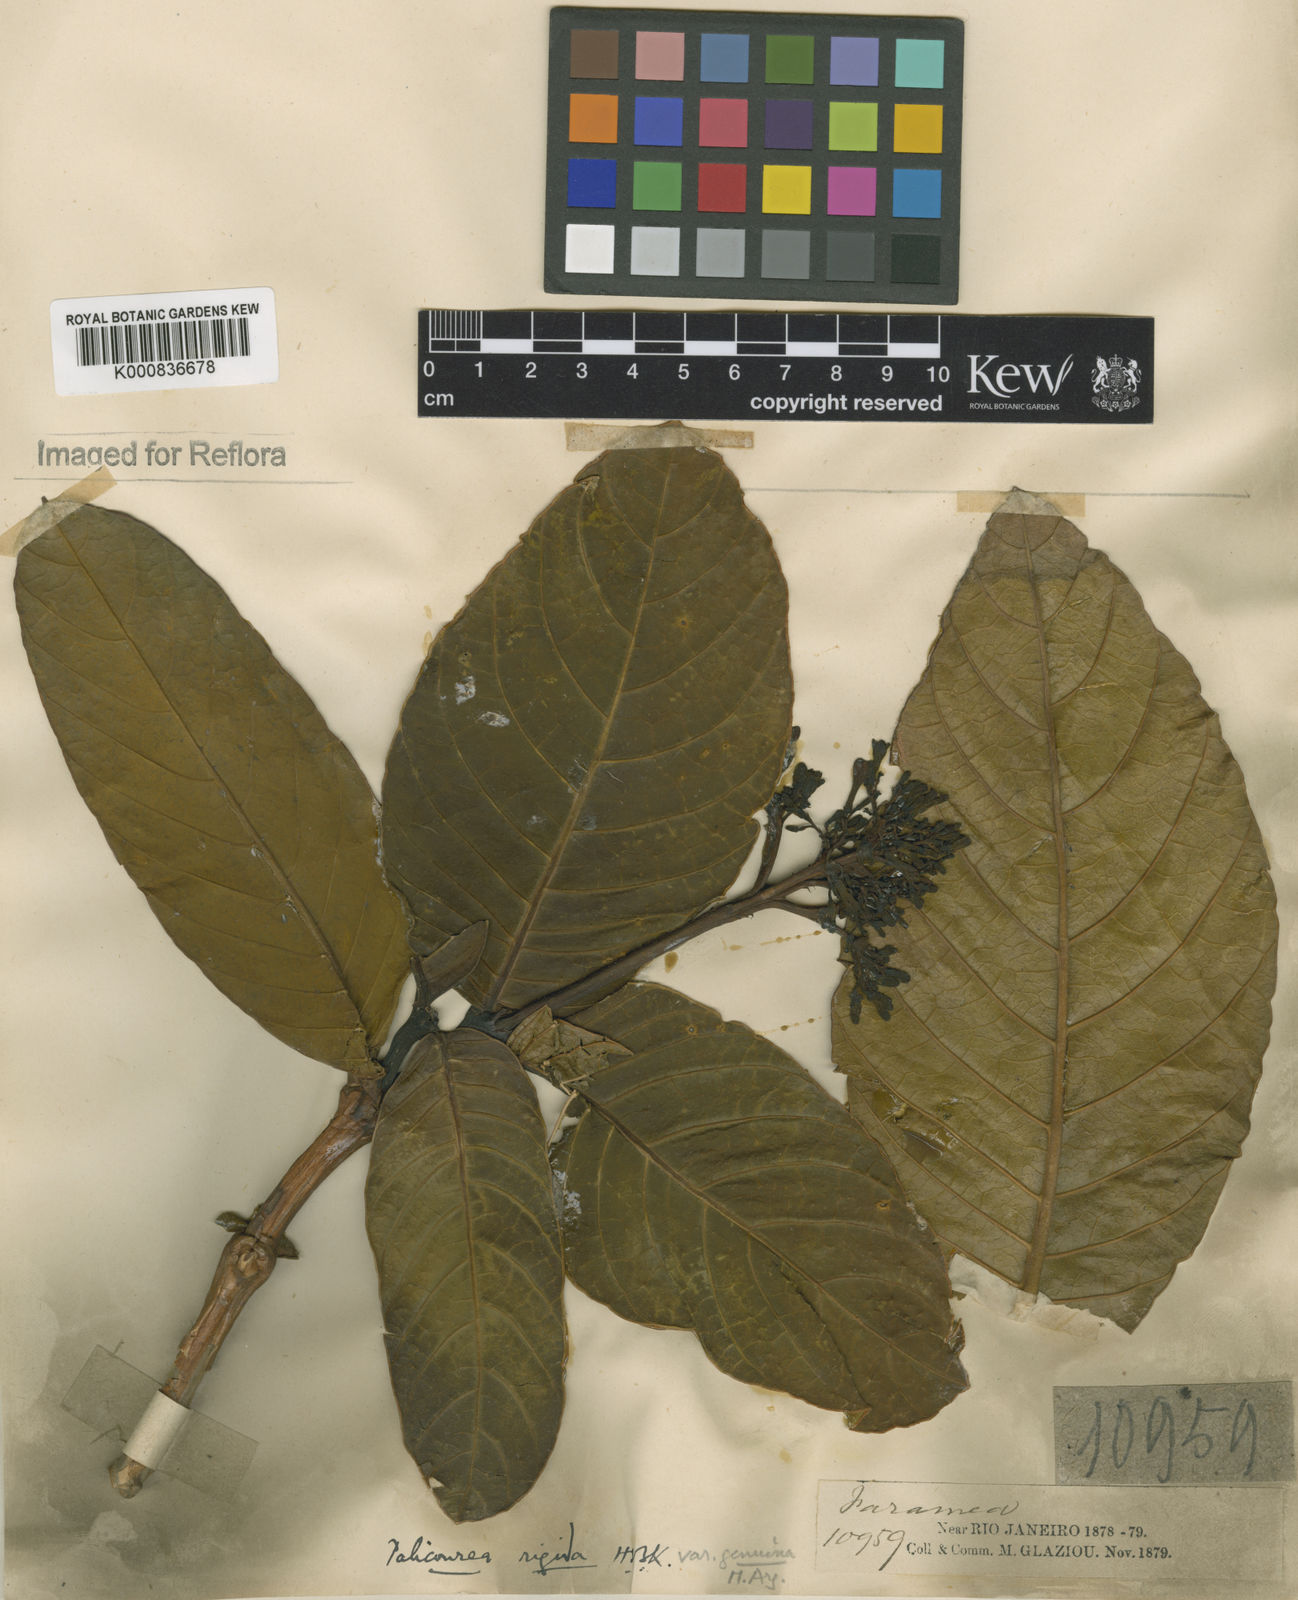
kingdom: Plantae
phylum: Tracheophyta
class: Magnoliopsida
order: Gentianales
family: Rubiaceae
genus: Palicourea
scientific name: Palicourea rigida
